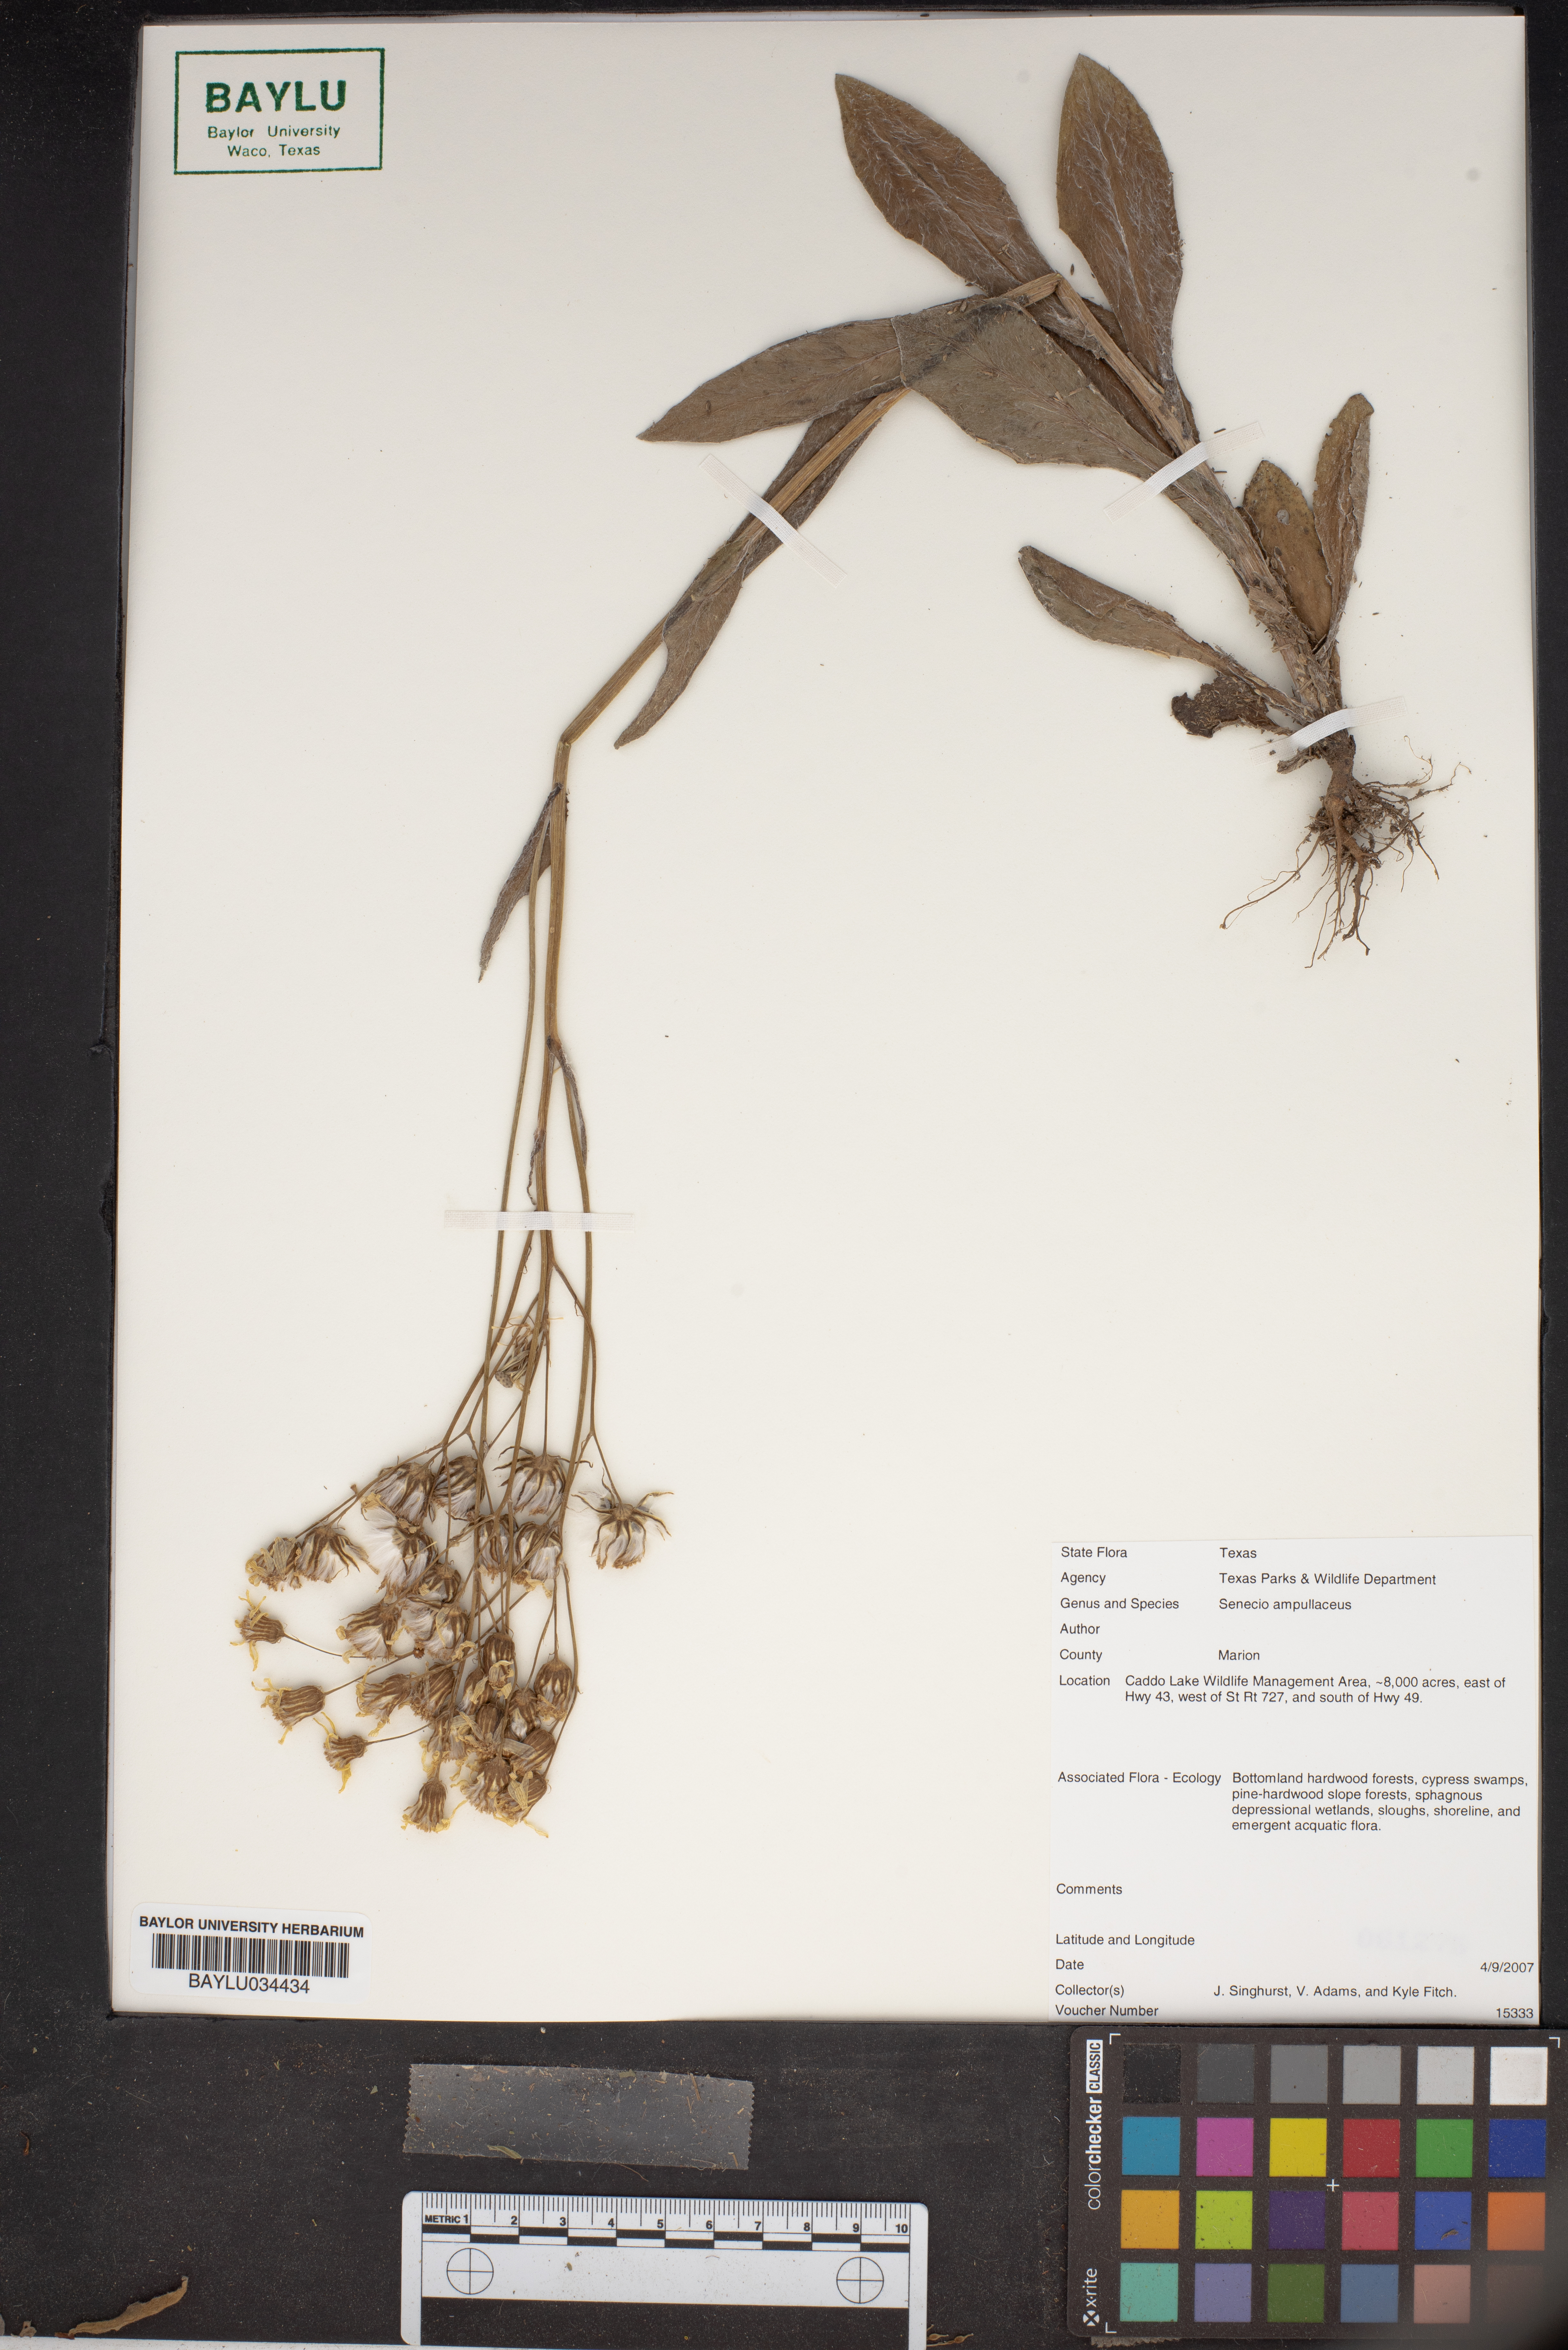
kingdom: Plantae
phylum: Tracheophyta
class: Magnoliopsida
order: Asterales
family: Asteraceae
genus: Senecio
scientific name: Senecio ampullaceus
